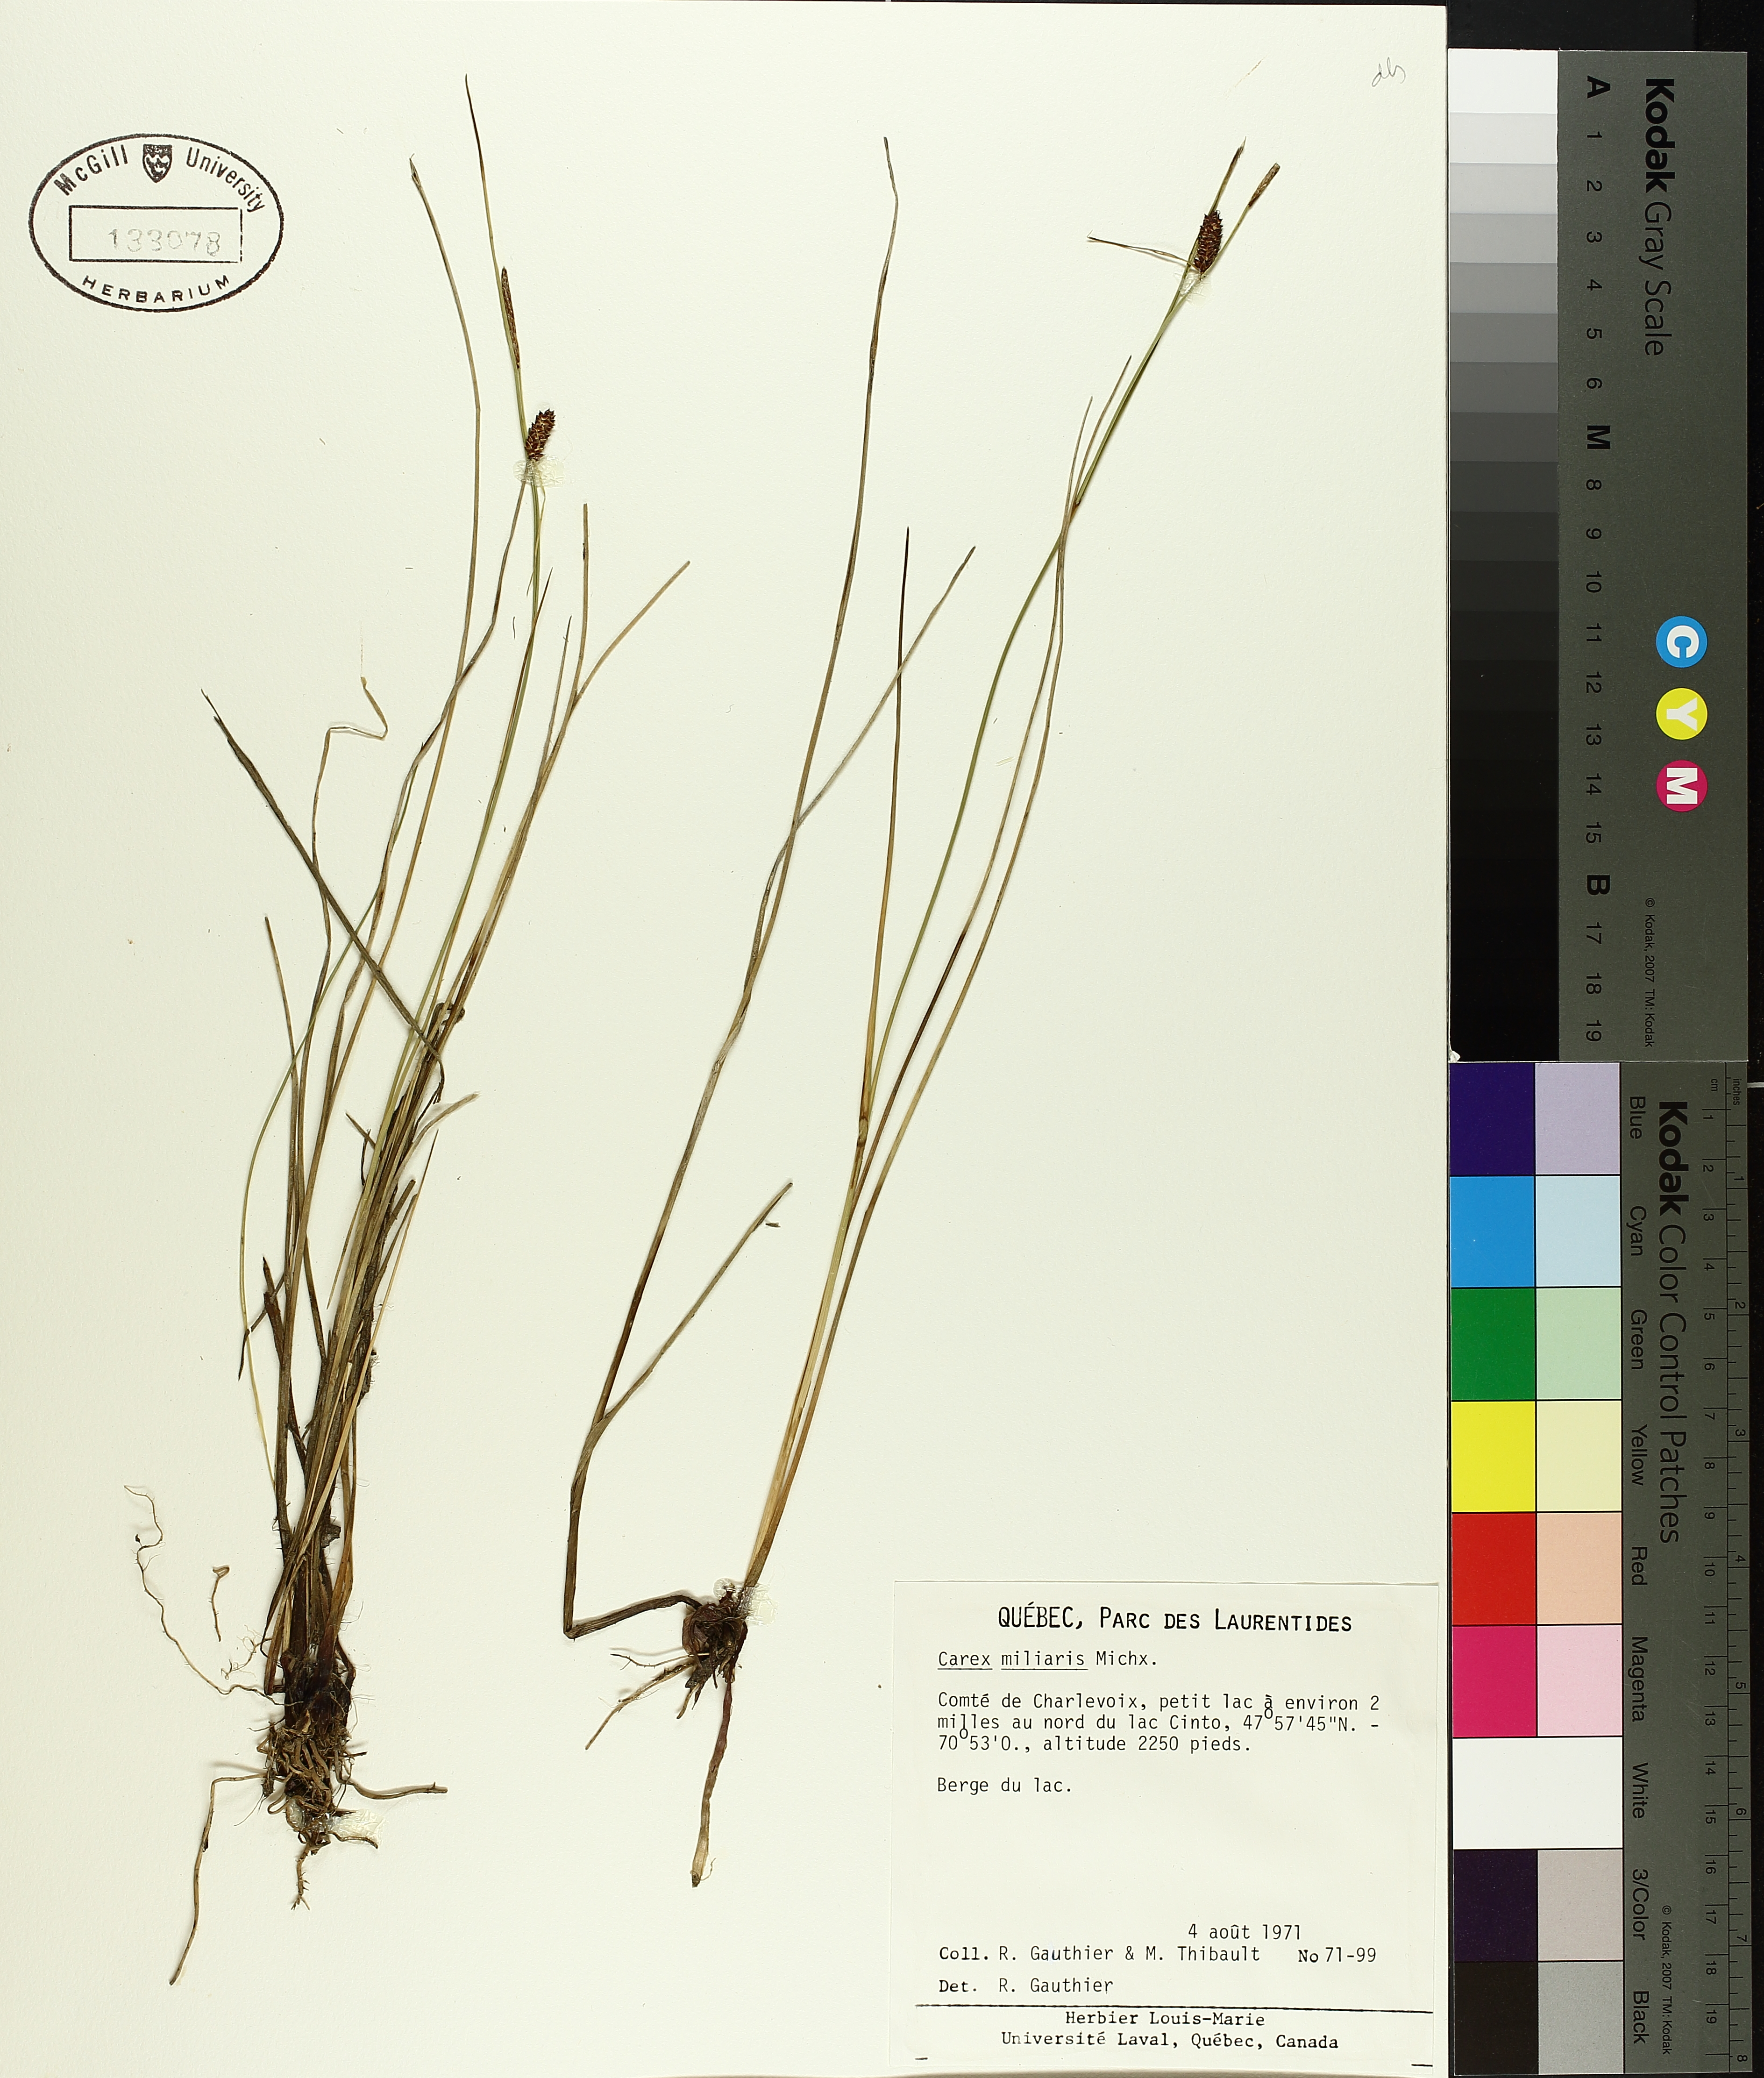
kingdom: Plantae
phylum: Tracheophyta
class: Liliopsida
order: Poales
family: Cyperaceae
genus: Carex
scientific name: Carex saxatilis
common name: Russet sedge
